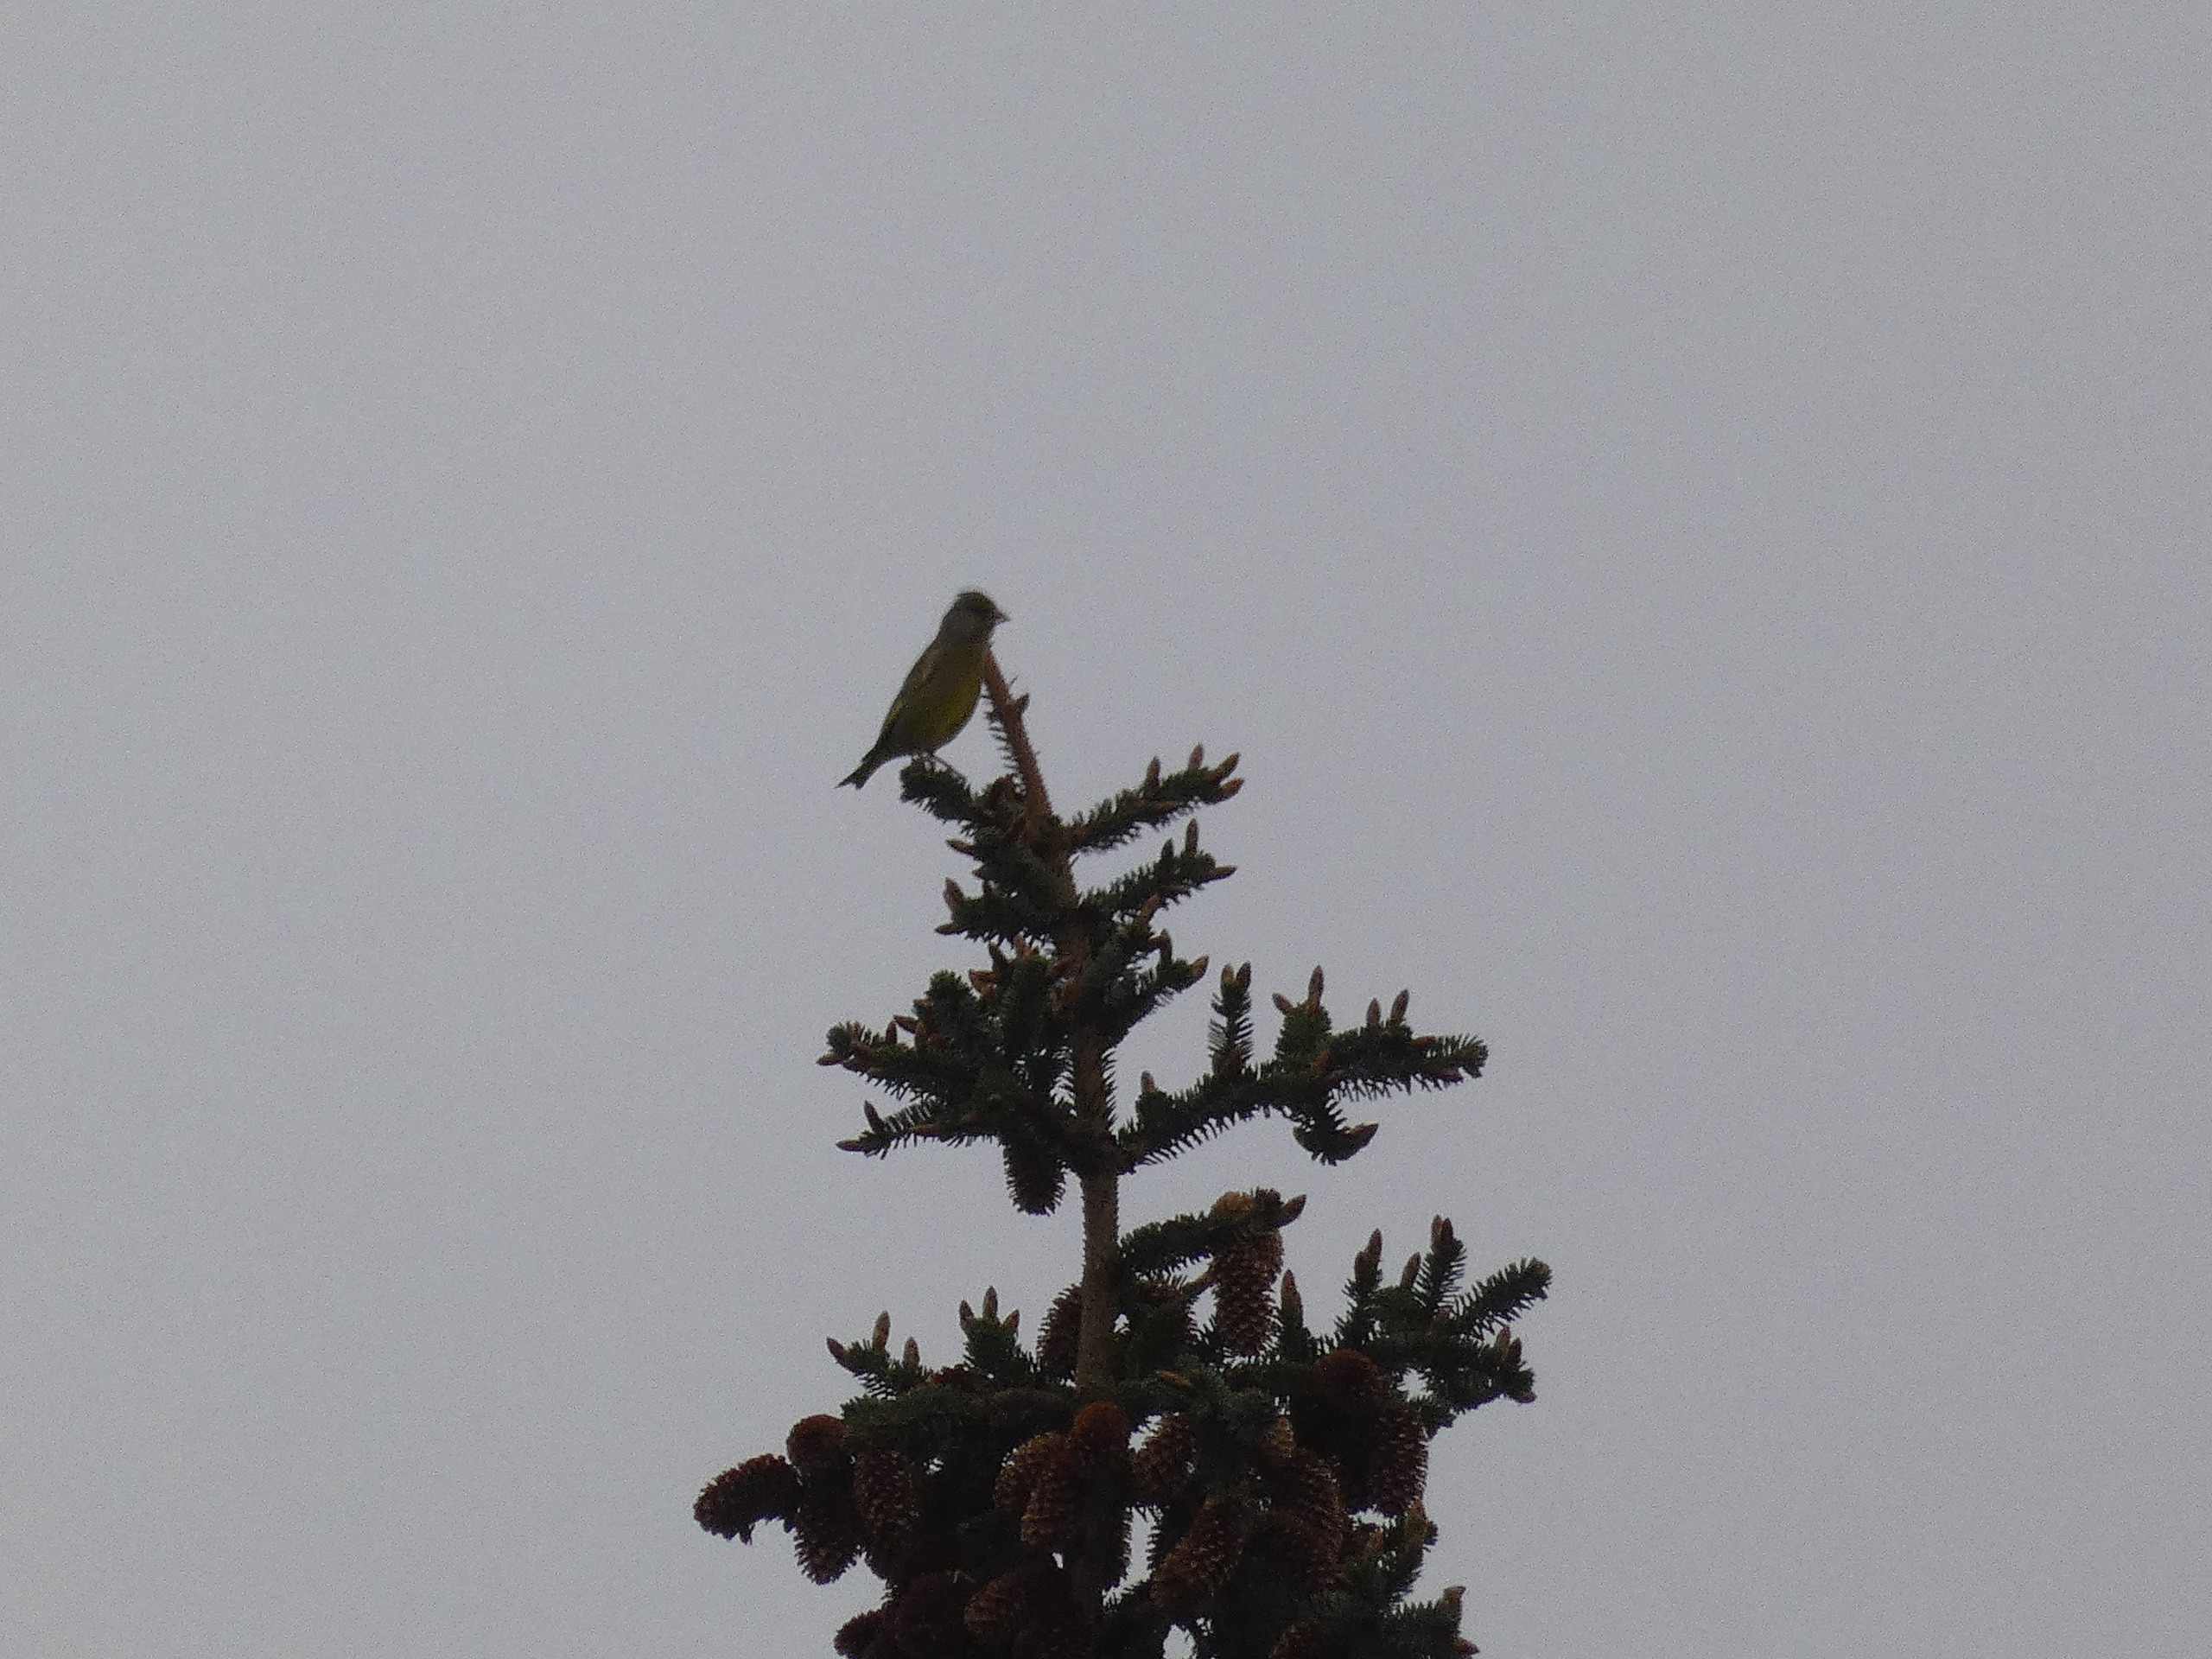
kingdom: Plantae
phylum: Tracheophyta
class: Liliopsida
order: Poales
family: Poaceae
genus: Chloris
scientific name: Chloris chloris
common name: Grønirisk
